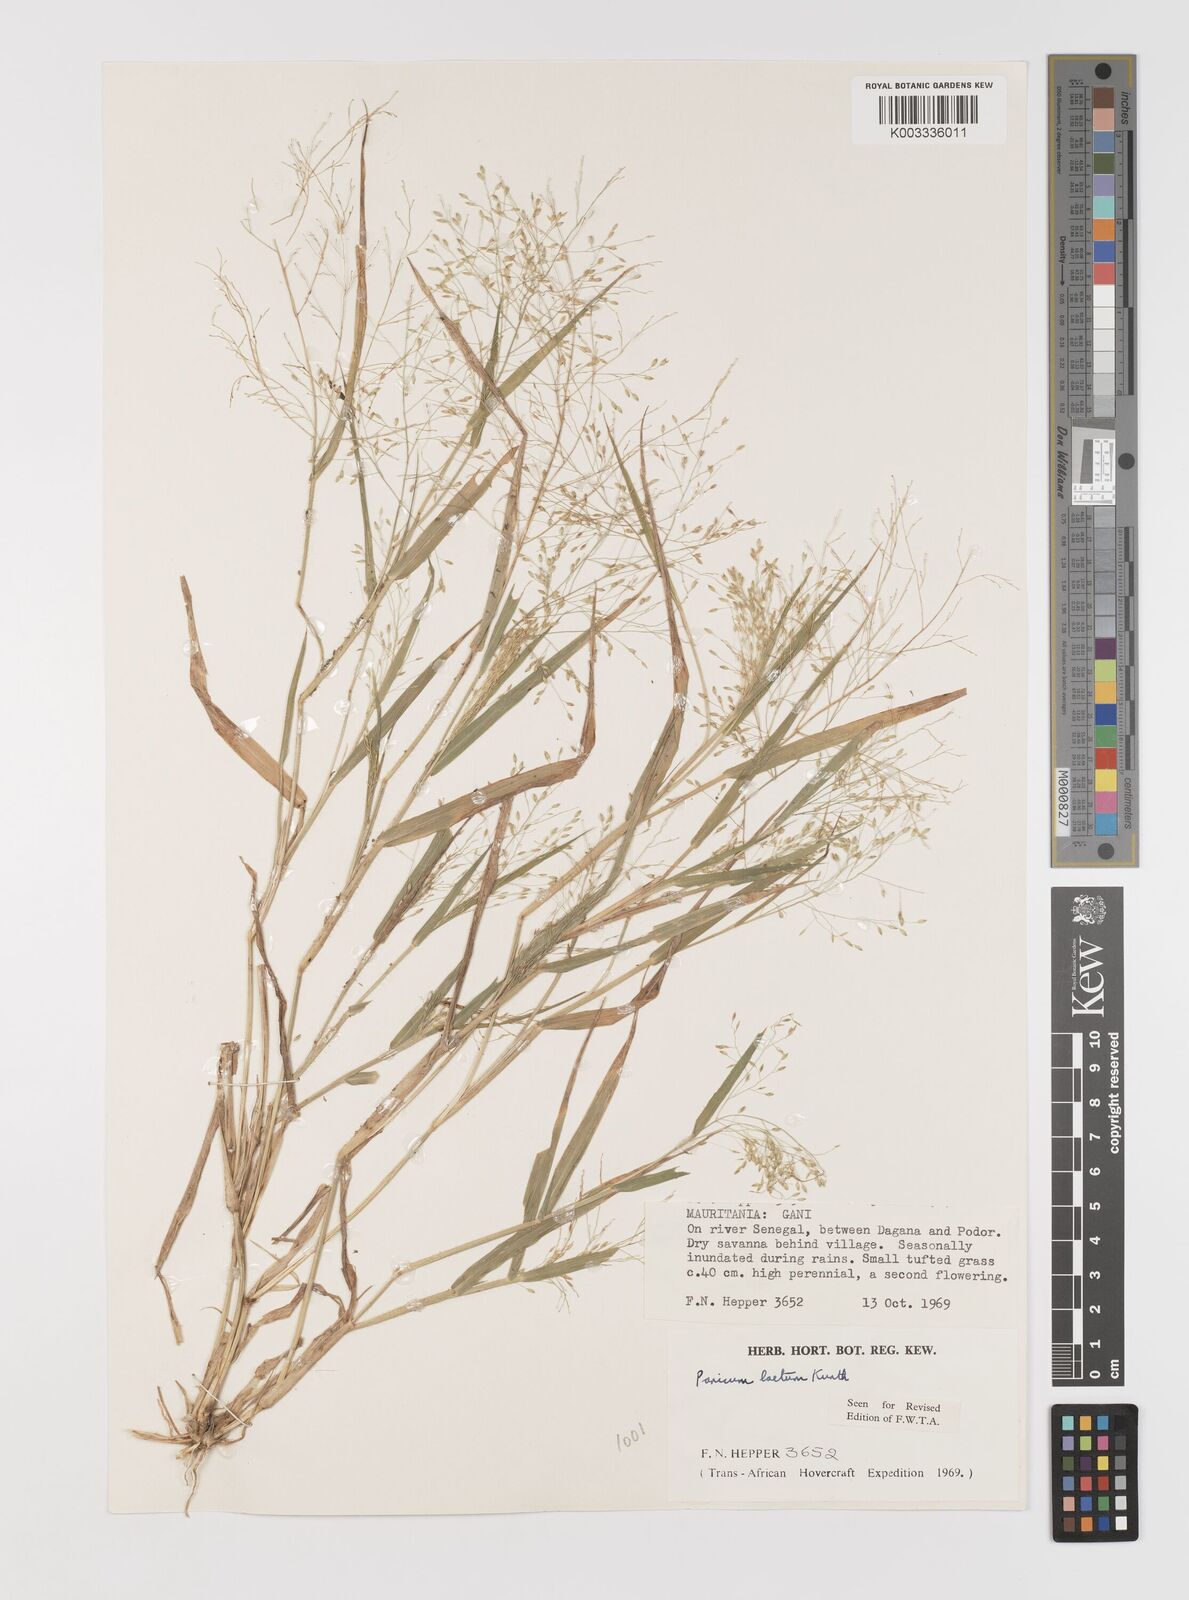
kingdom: Plantae
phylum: Tracheophyta
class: Liliopsida
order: Poales
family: Poaceae
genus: Panicum
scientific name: Panicum laetum
